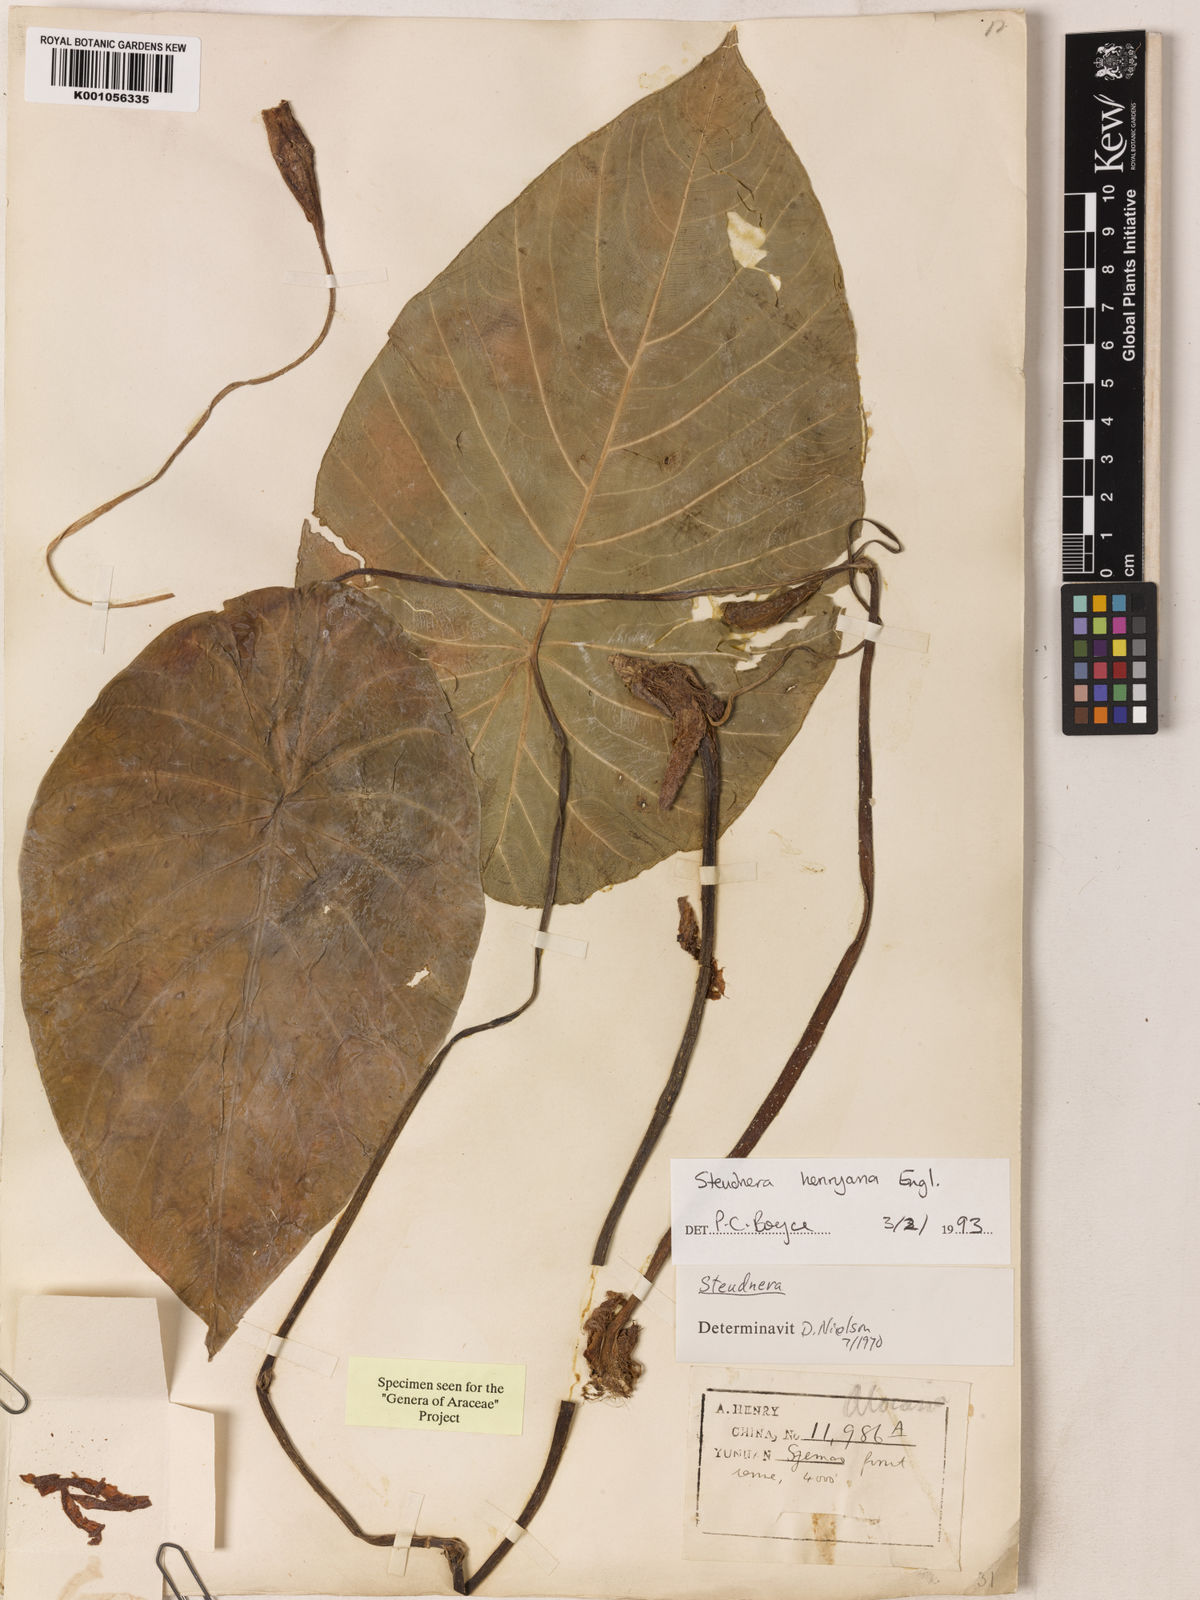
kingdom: Plantae
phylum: Tracheophyta
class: Liliopsida
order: Alismatales
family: Araceae
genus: Steudnera
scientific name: Steudnera henryana
